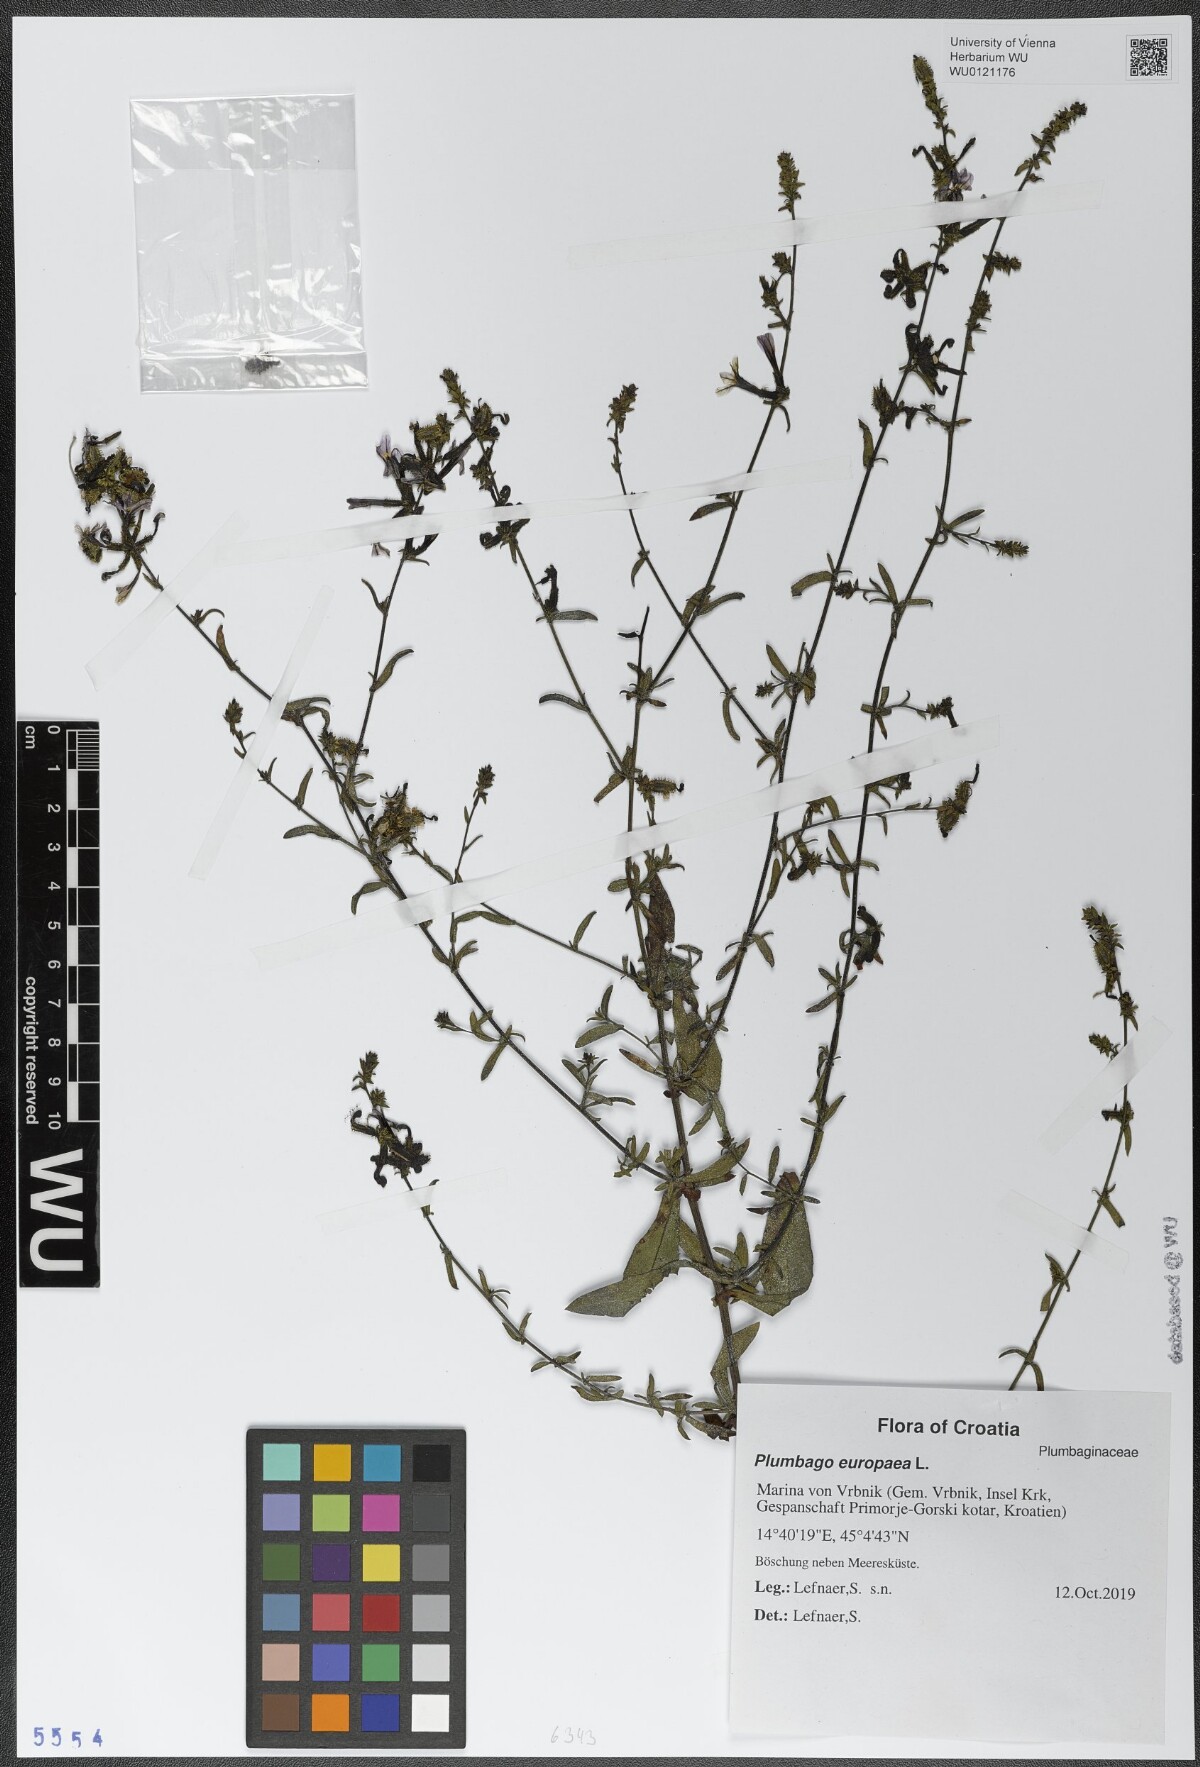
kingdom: Plantae
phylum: Tracheophyta
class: Magnoliopsida
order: Caryophyllales
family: Plumbaginaceae
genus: Plumbago
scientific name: Plumbago europaea
